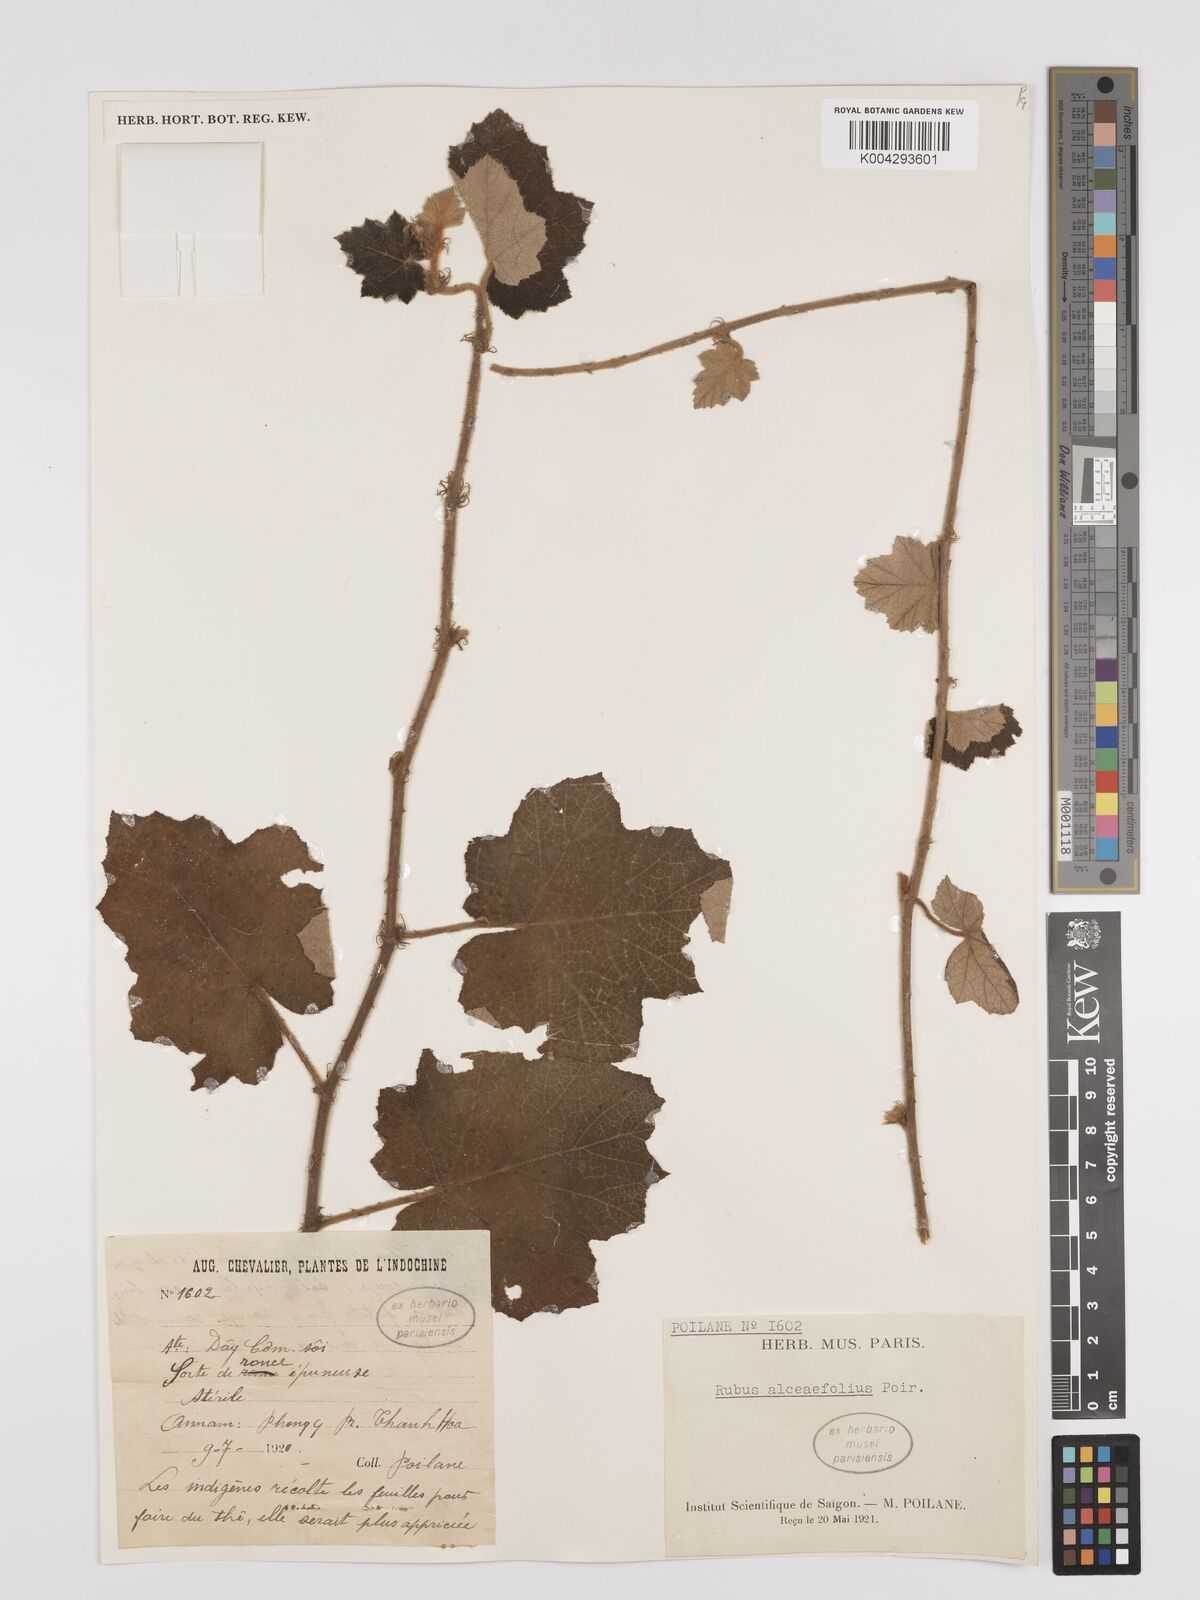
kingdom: Plantae
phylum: Tracheophyta
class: Magnoliopsida
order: Rosales
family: Rosaceae
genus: Rubus
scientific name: Rubus alceifolius
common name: Giant bramble
